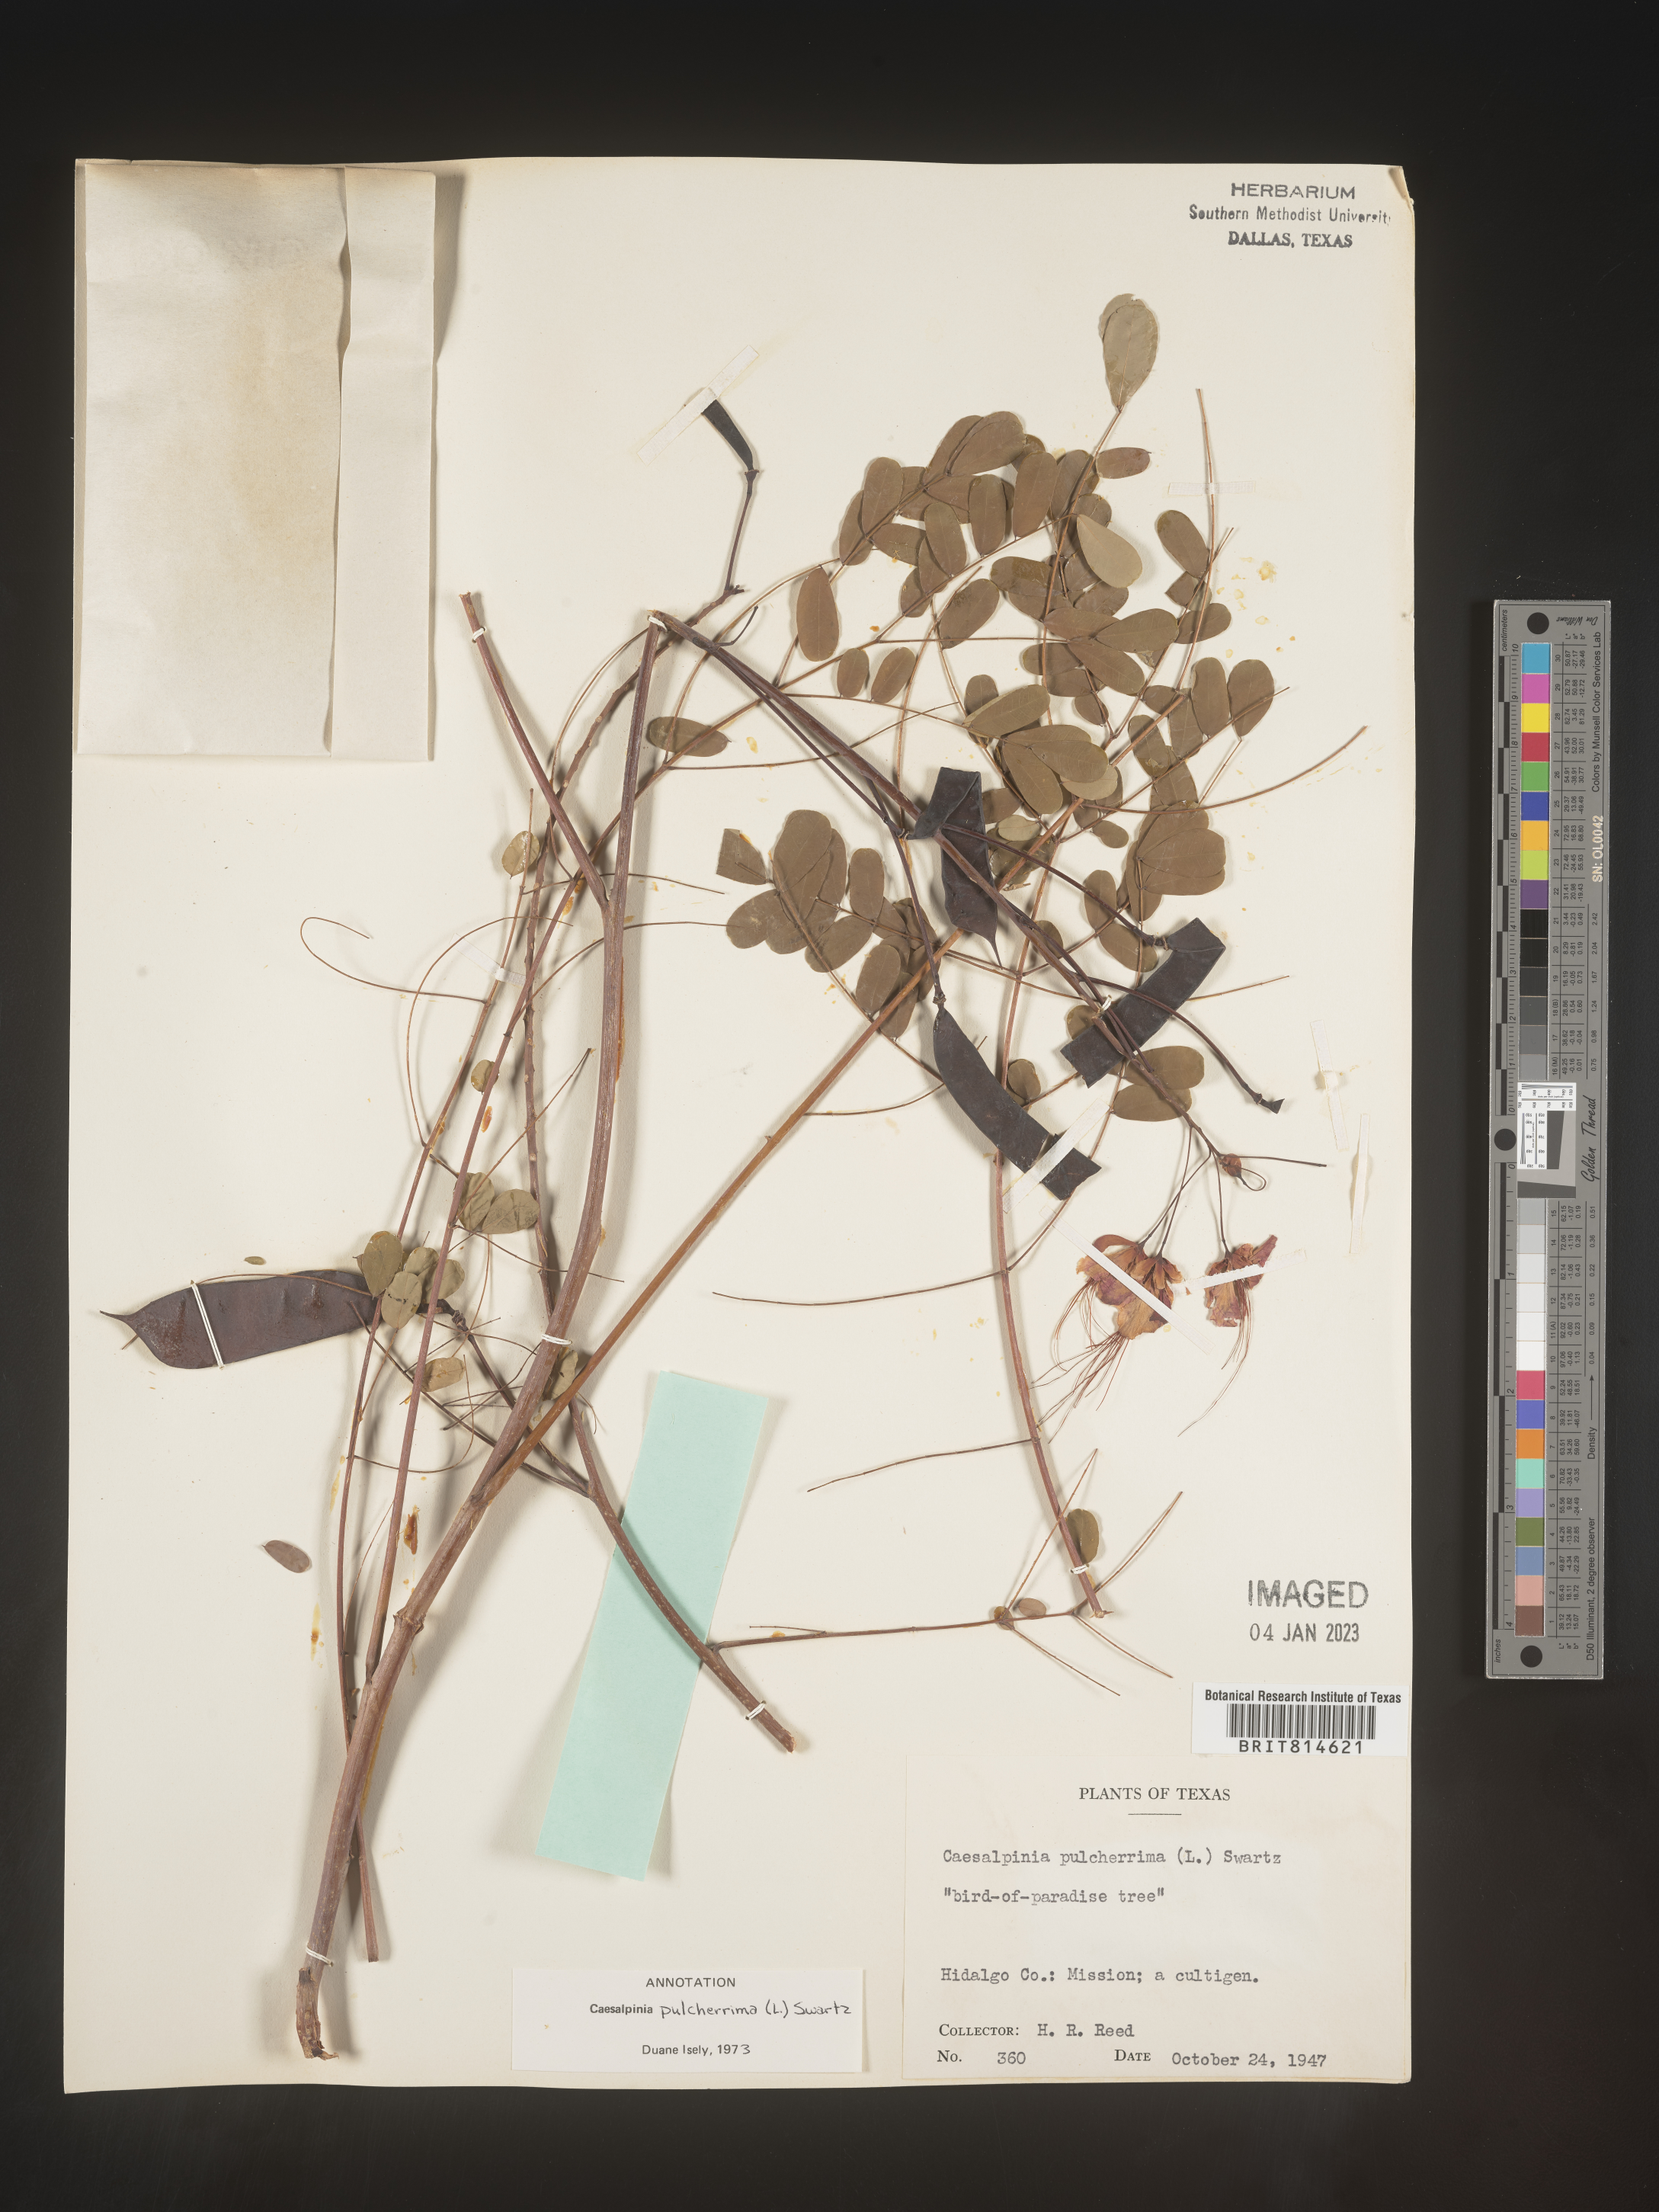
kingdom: Plantae
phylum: Tracheophyta
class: Magnoliopsida
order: Fabales
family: Fabaceae
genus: Caesalpinia
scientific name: Caesalpinia
